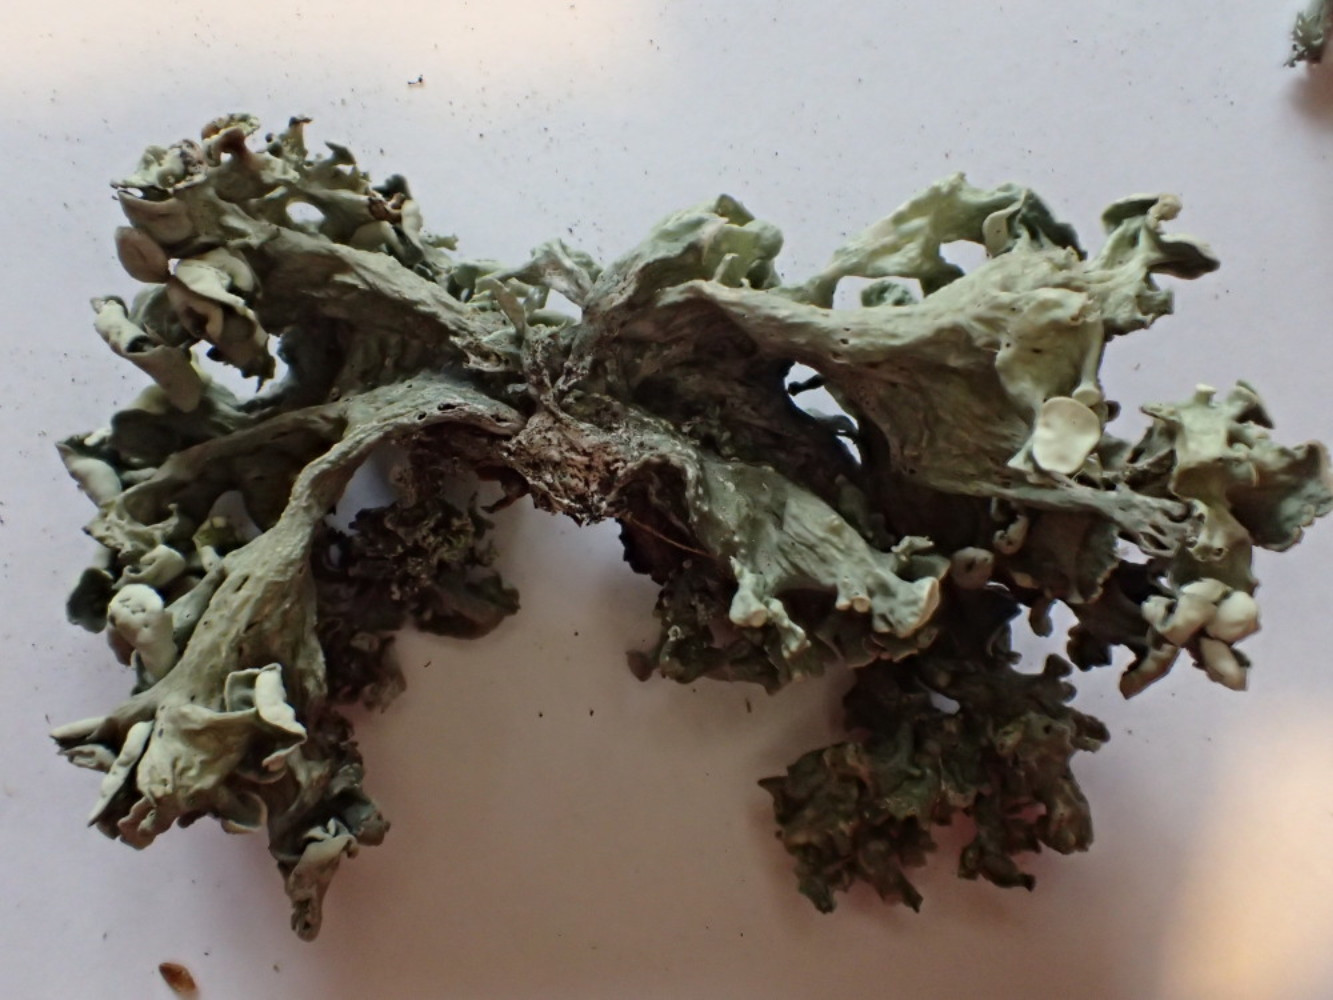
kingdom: Fungi
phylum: Ascomycota
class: Lecanoromycetes
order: Lecanorales
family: Ramalinaceae
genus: Ramalina
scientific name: Ramalina fastigiata
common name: tue-grenlav
